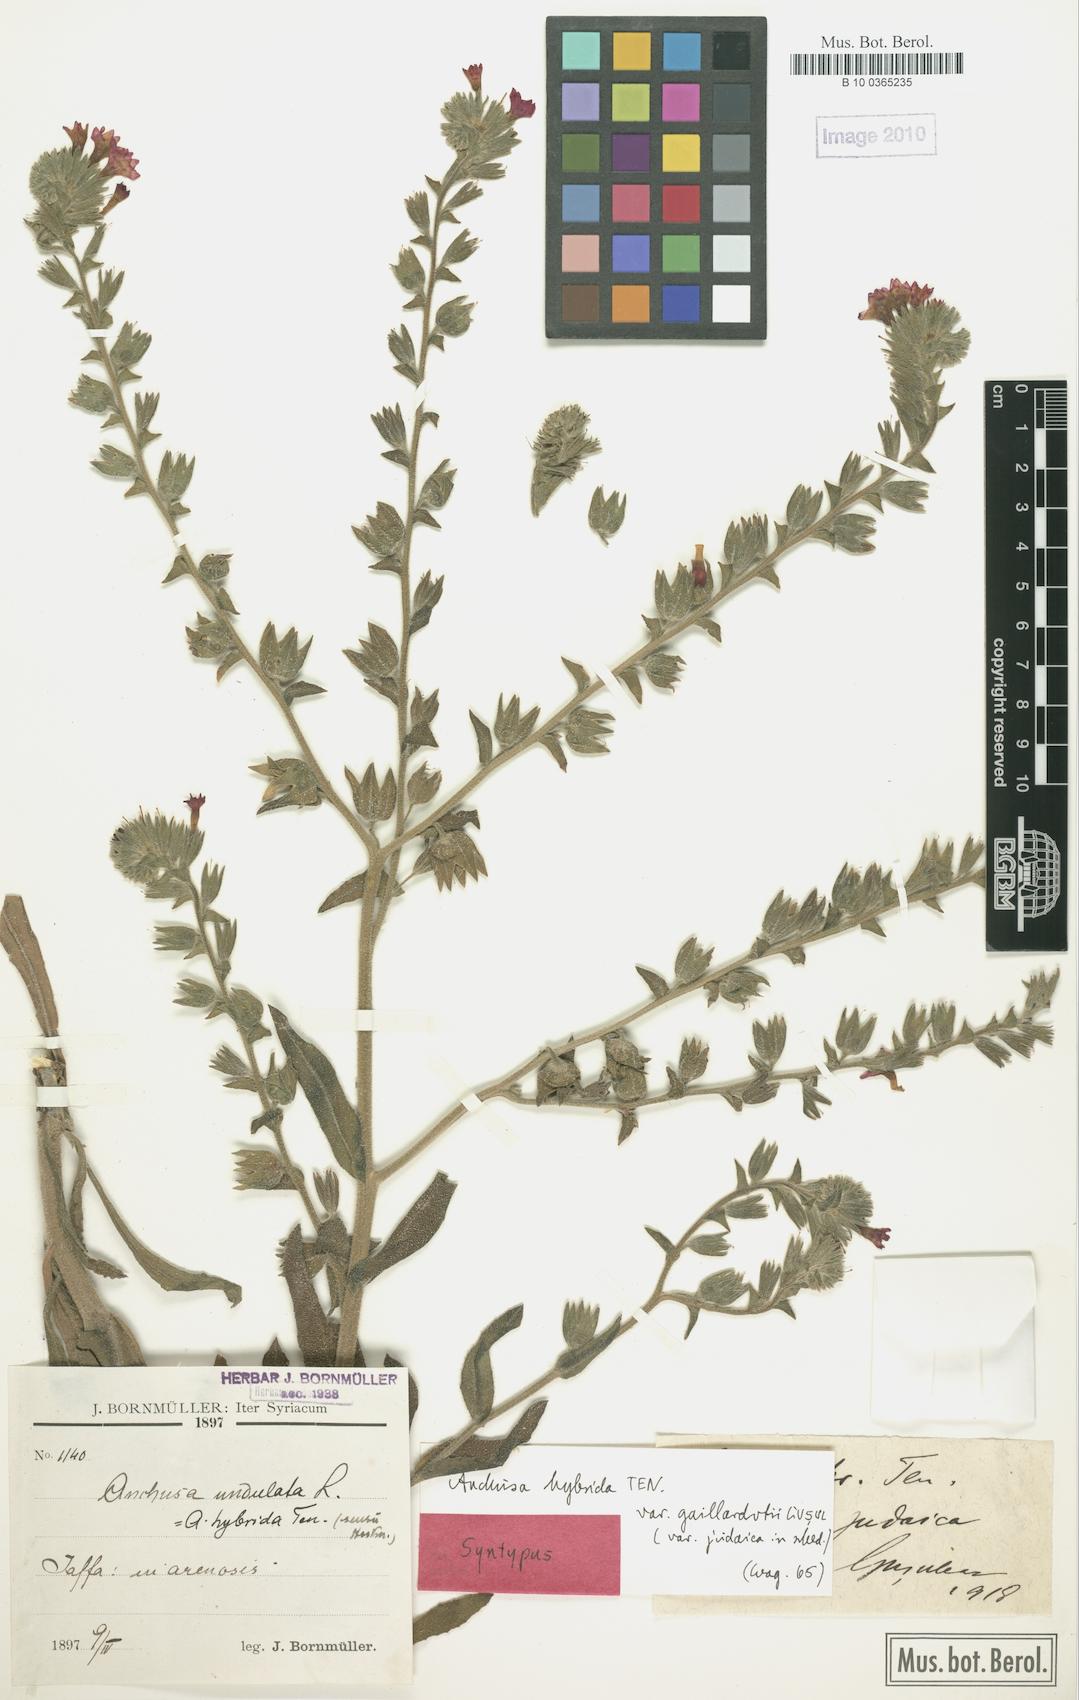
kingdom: Plantae
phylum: Tracheophyta
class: Magnoliopsida
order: Boraginales
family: Boraginaceae
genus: Anchusa
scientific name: Anchusa hybrida
